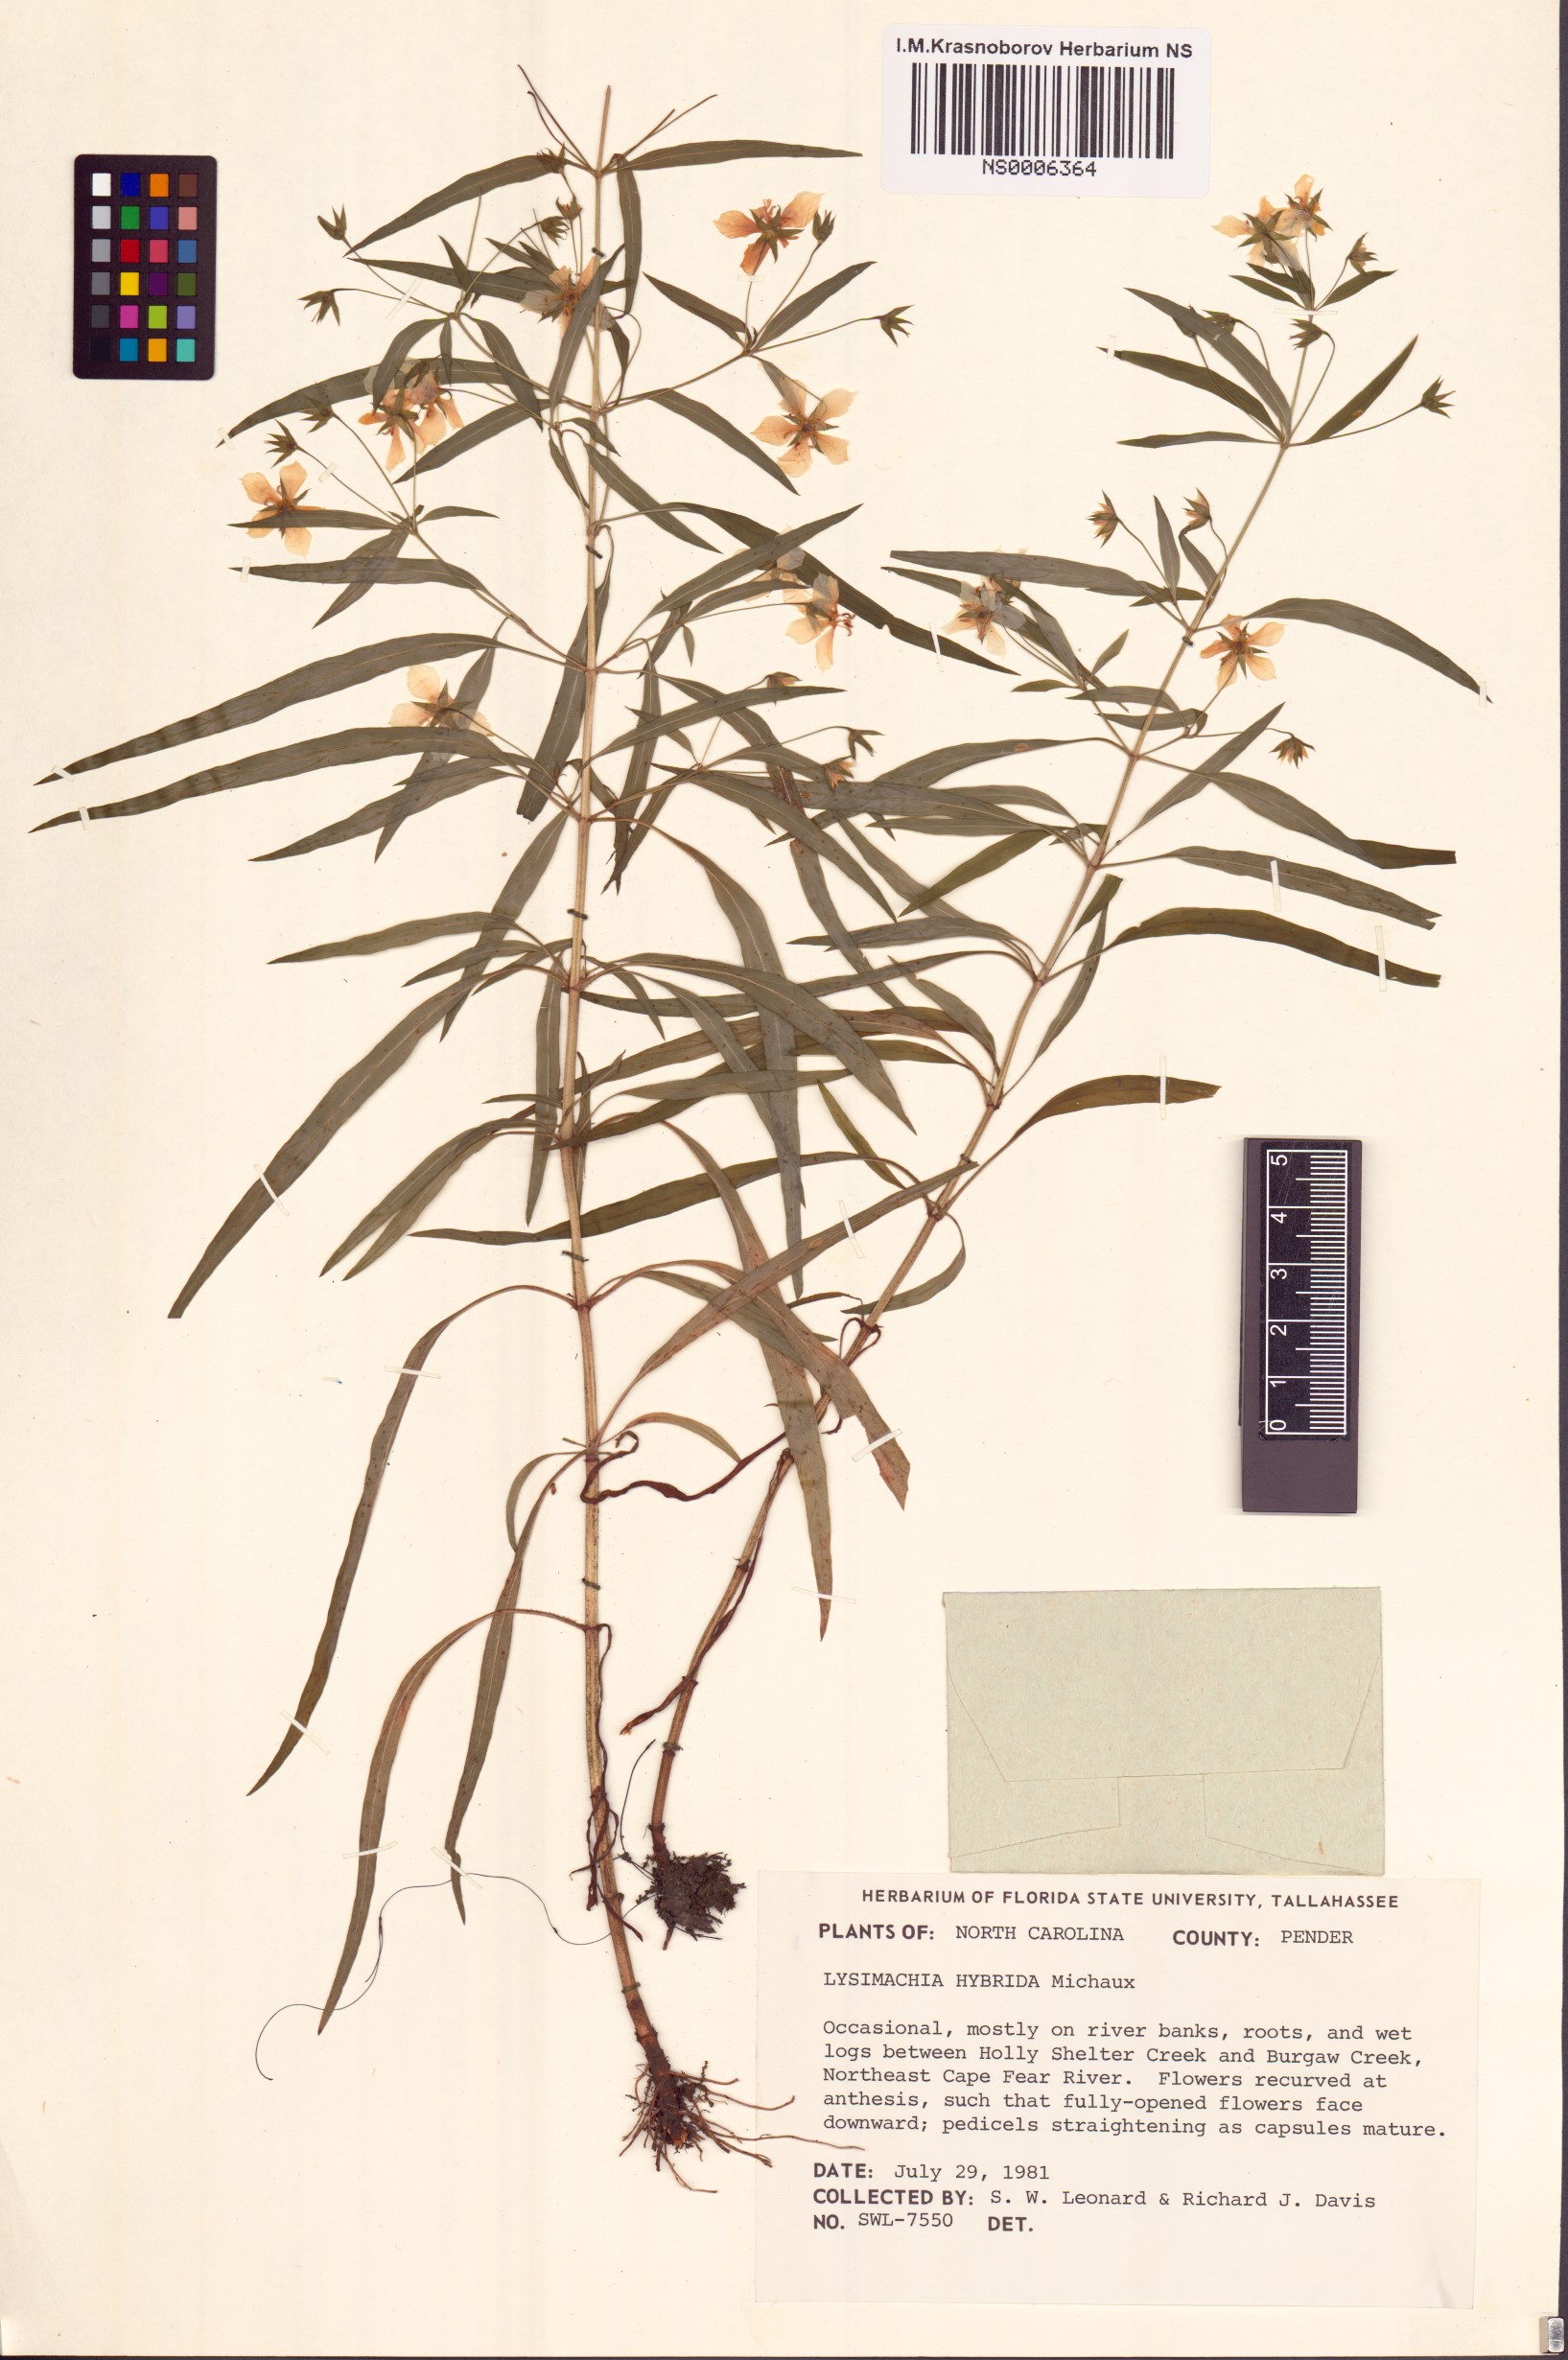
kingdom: Plantae
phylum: Tracheophyta
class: Magnoliopsida
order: Ericales
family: Primulaceae
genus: Lysimachia
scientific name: Lysimachia hybrida
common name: Lowland loosestrife
